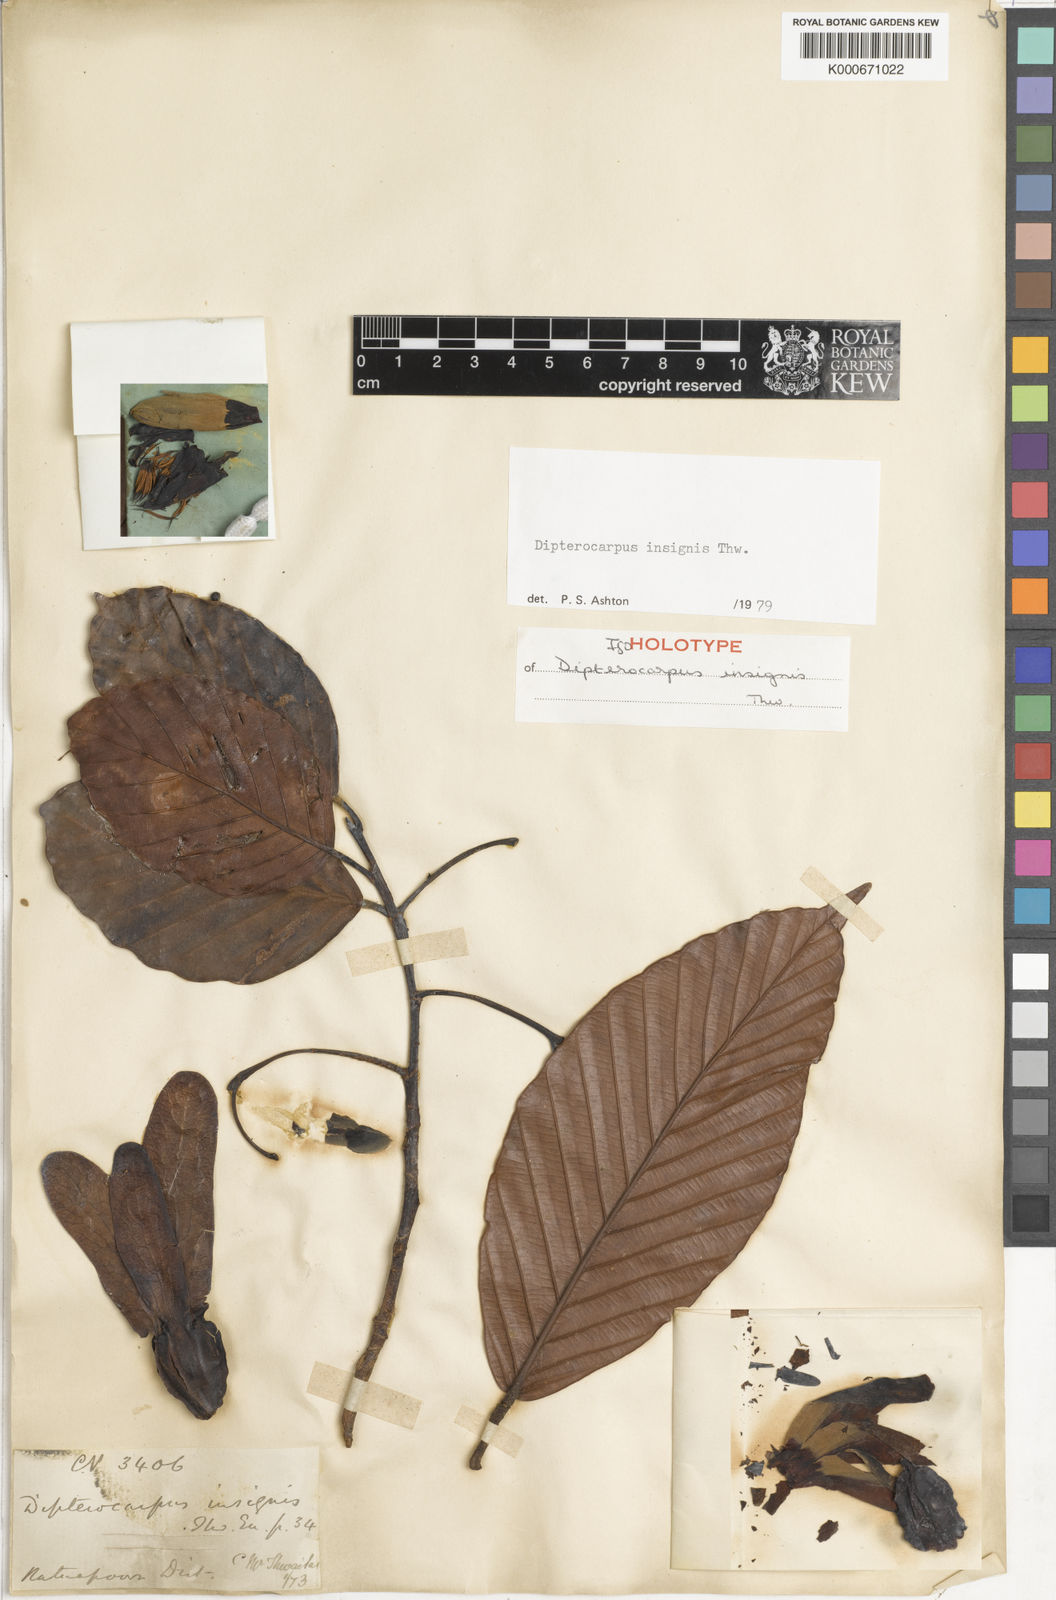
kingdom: Plantae
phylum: Tracheophyta
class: Magnoliopsida
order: Malvales
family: Dipterocarpaceae
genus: Dipterocarpus
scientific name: Dipterocarpus insignis
